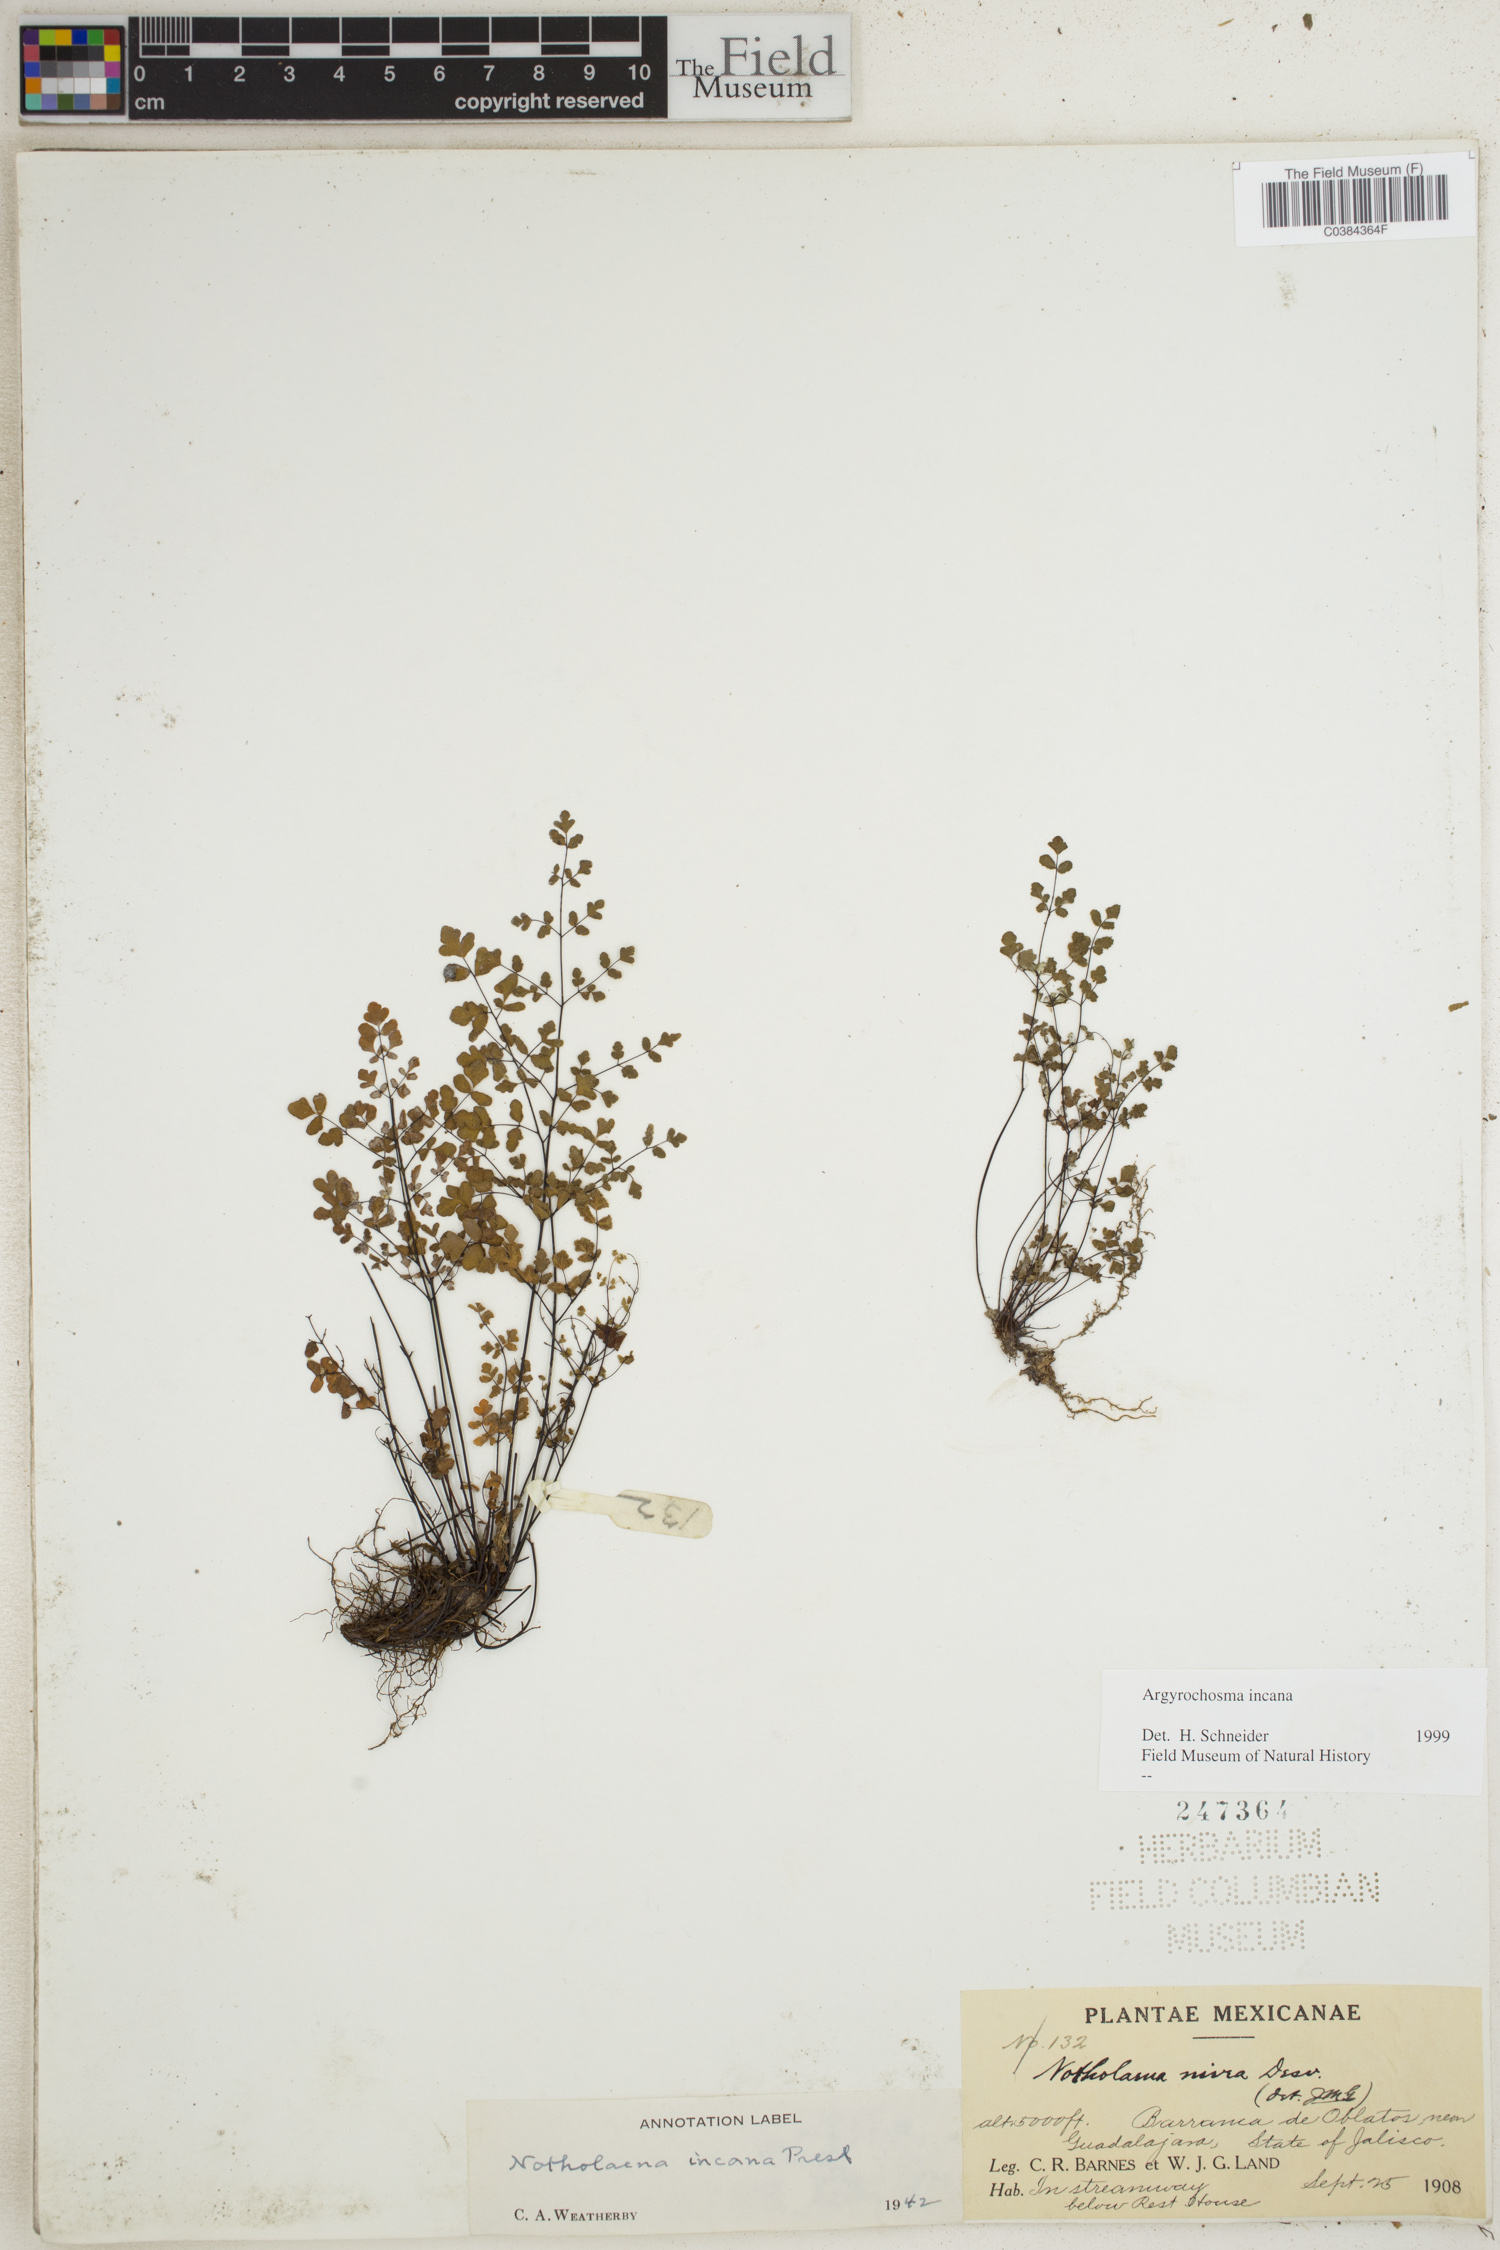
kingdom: Plantae
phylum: Tracheophyta
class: Polypodiopsida
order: Polypodiales
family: Pteridaceae
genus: Argyrochosma
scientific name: Argyrochosma incana
